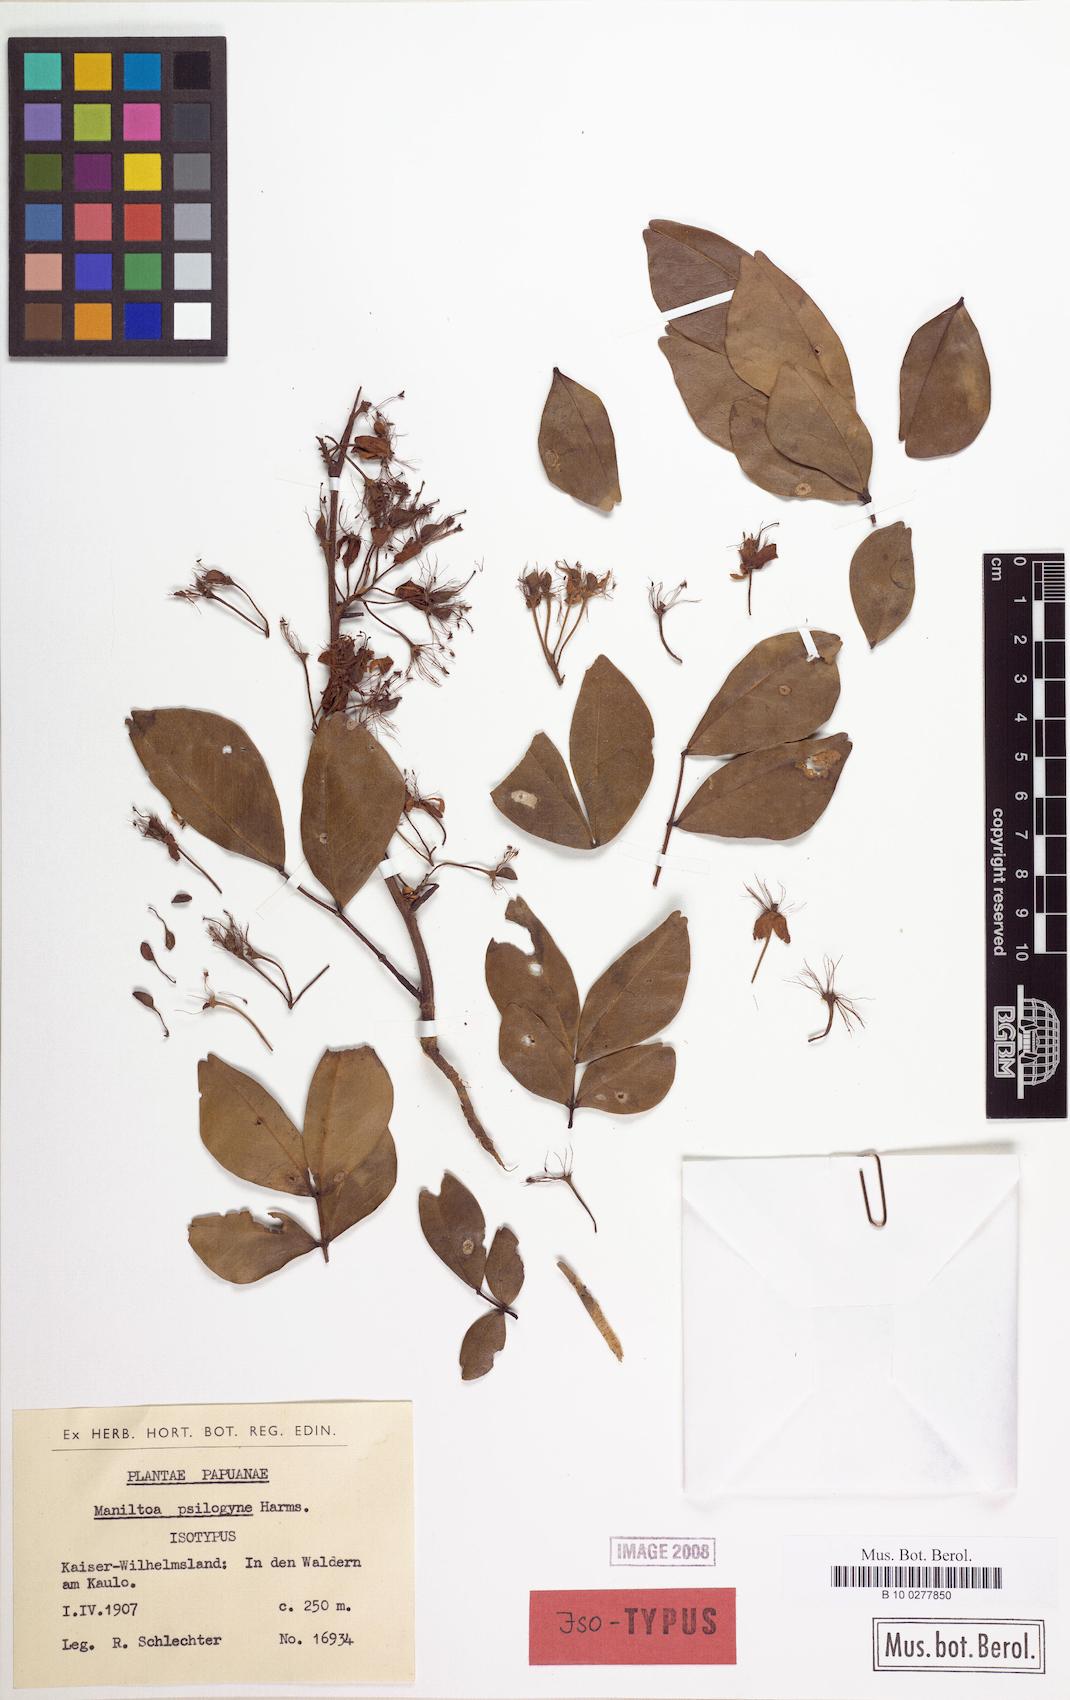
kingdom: Plantae
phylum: Tracheophyta
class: Magnoliopsida
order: Fabales
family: Fabaceae
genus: Cynometra
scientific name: Cynometra psilogyne
